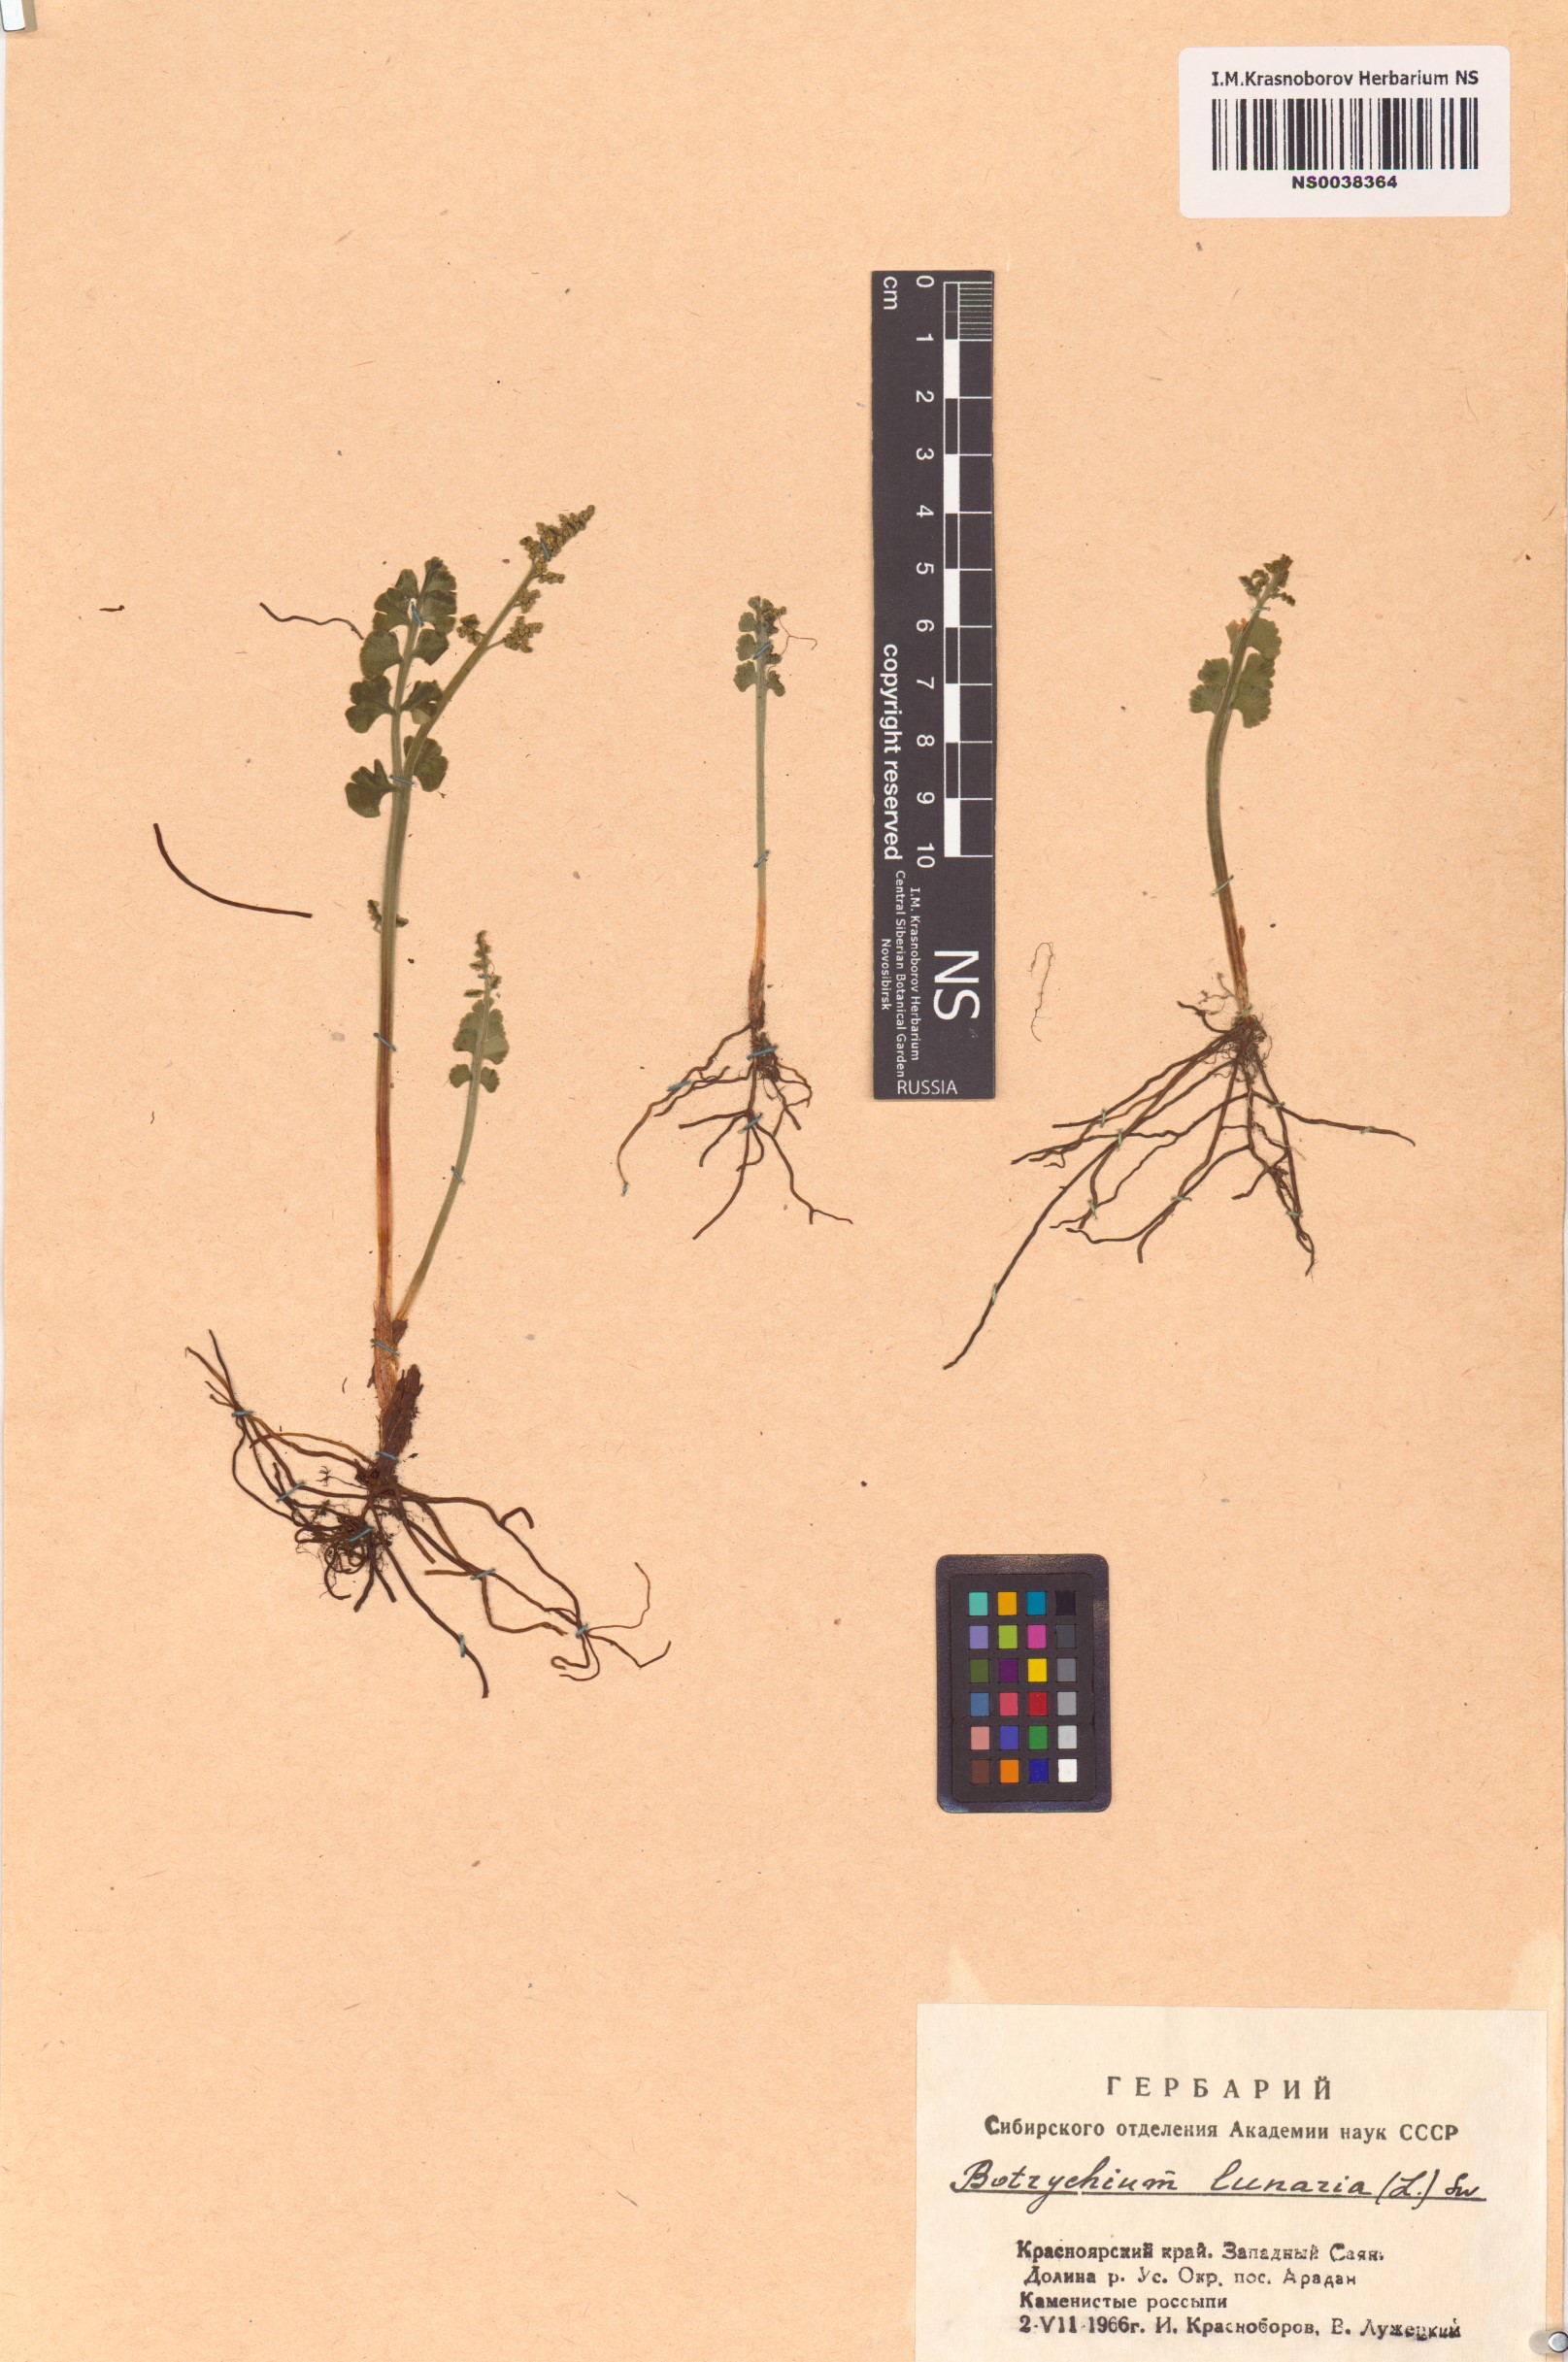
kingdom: Plantae
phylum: Tracheophyta
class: Polypodiopsida
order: Ophioglossales
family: Ophioglossaceae
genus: Botrychium
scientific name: Botrychium lunaria
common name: Moonwort
